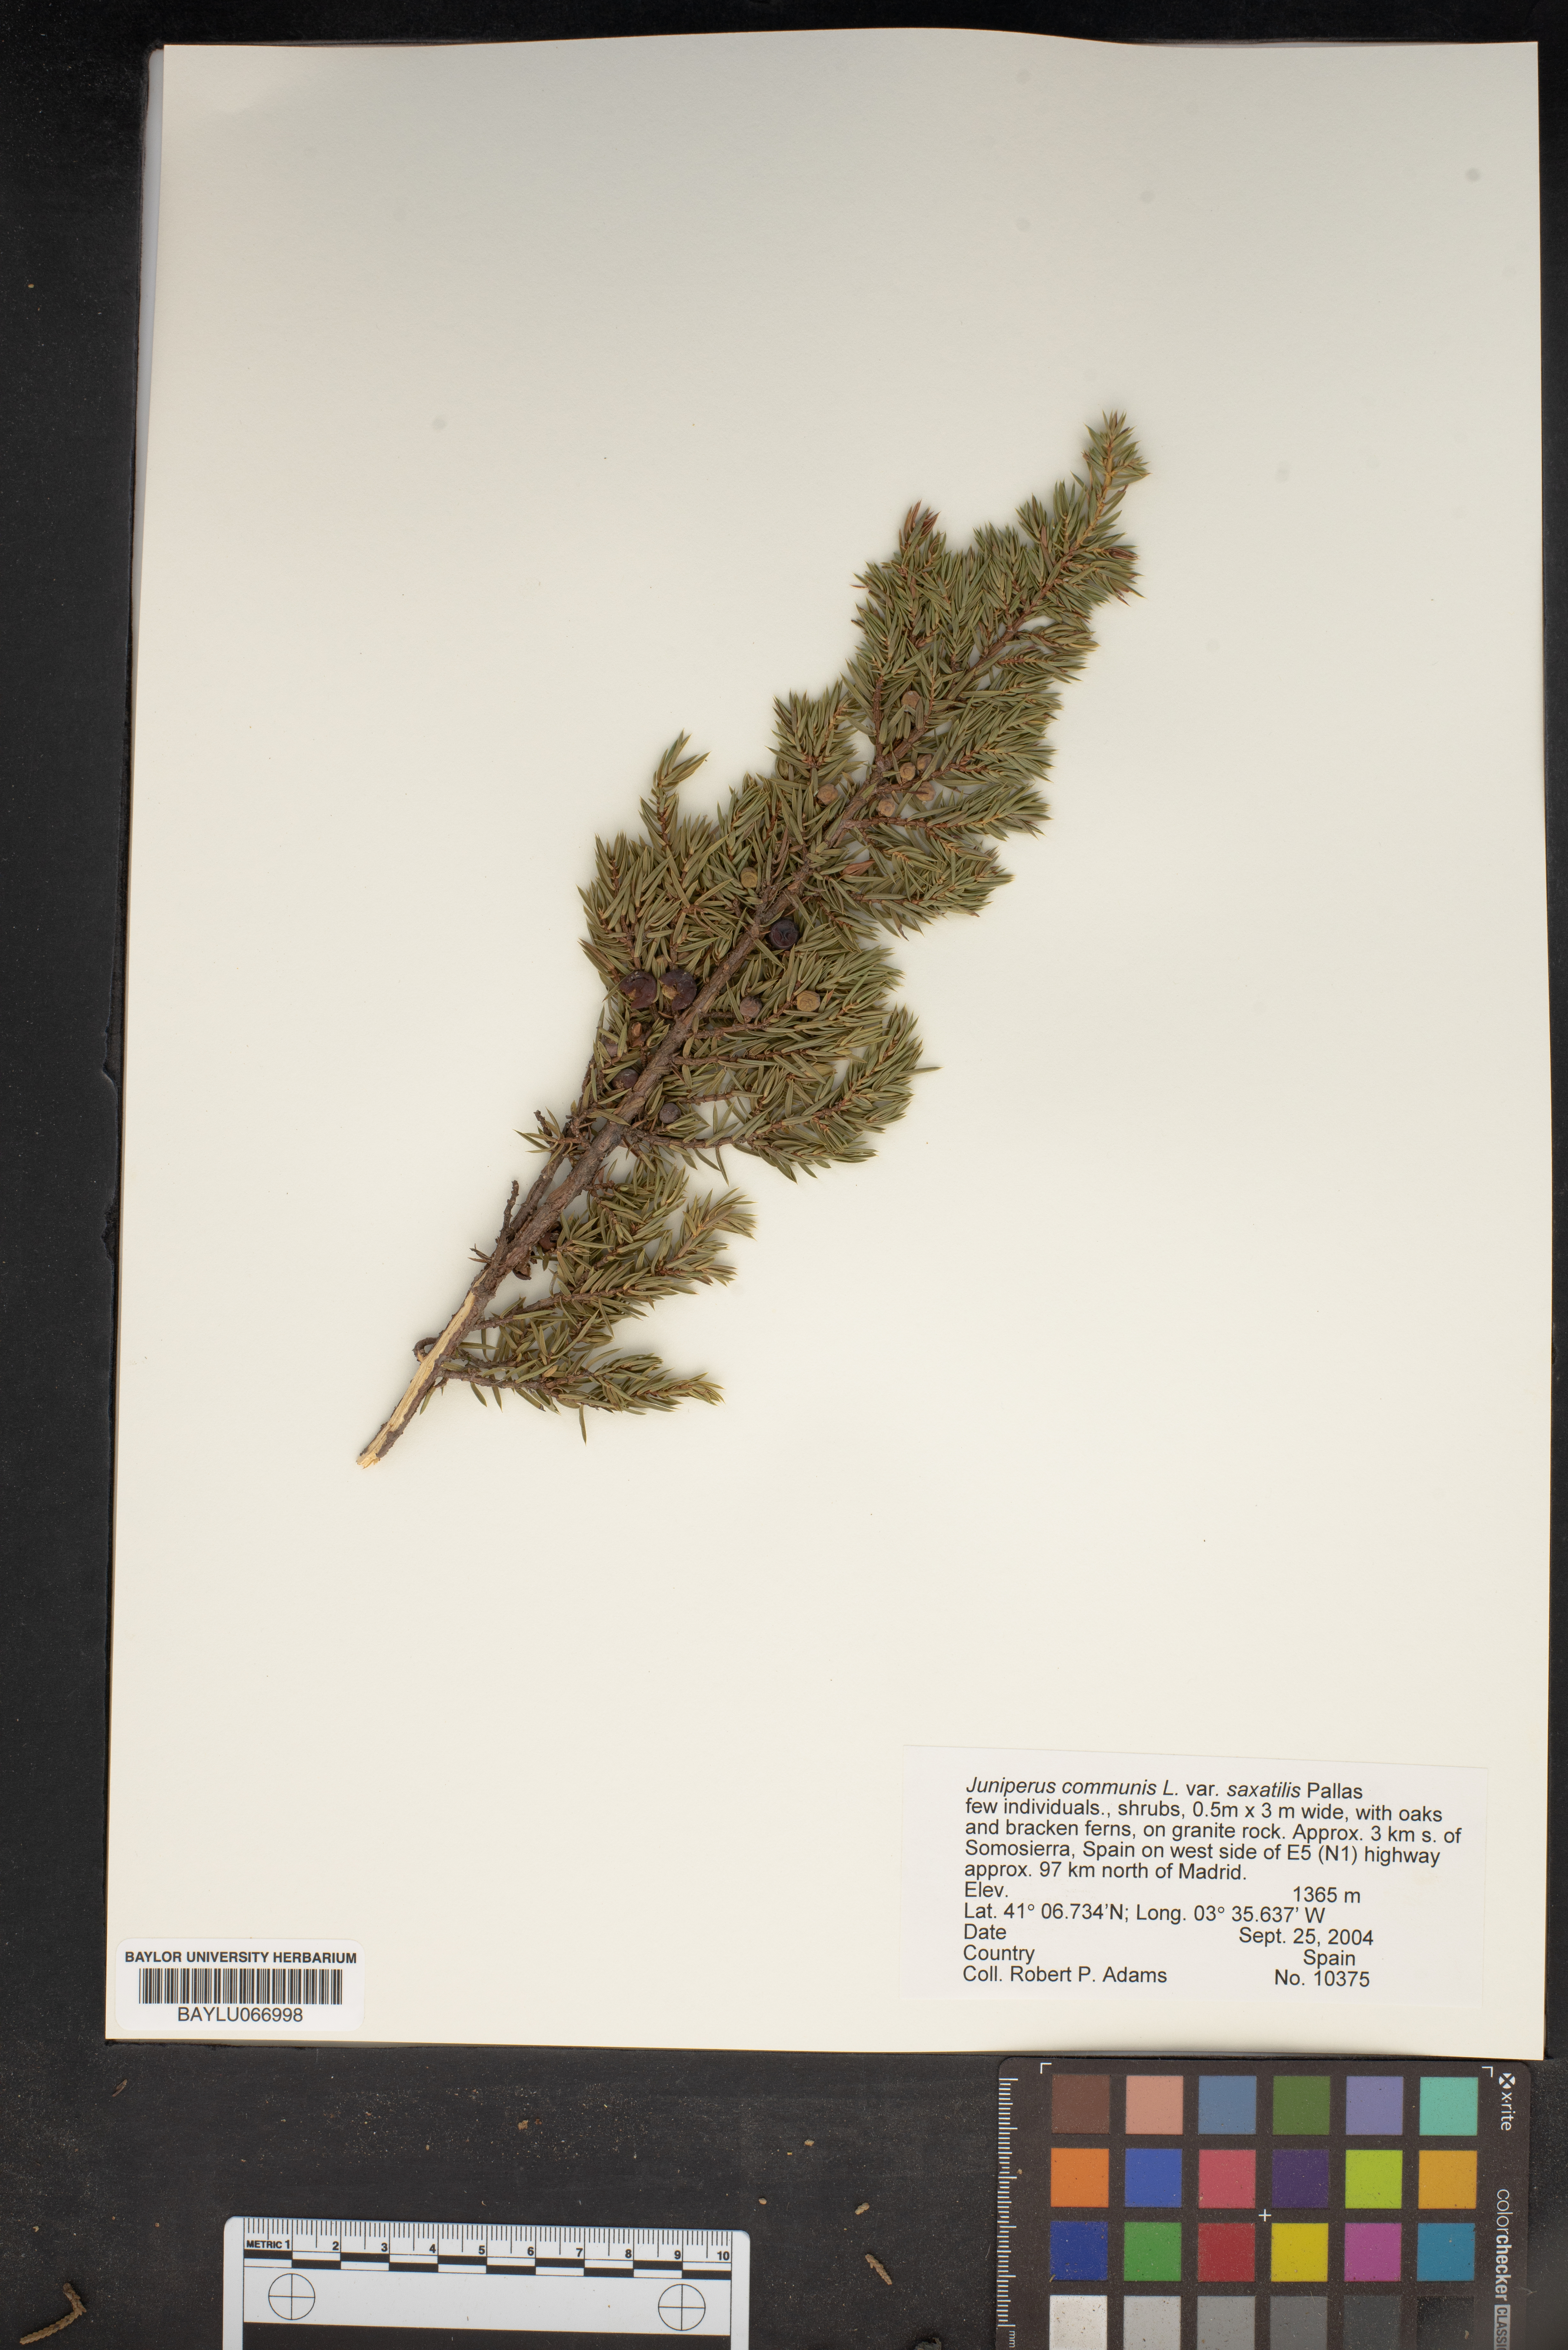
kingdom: Plantae
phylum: Tracheophyta
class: Pinopsida
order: Pinales
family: Cupressaceae
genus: Juniperus
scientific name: Juniperus communis
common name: Common juniper
